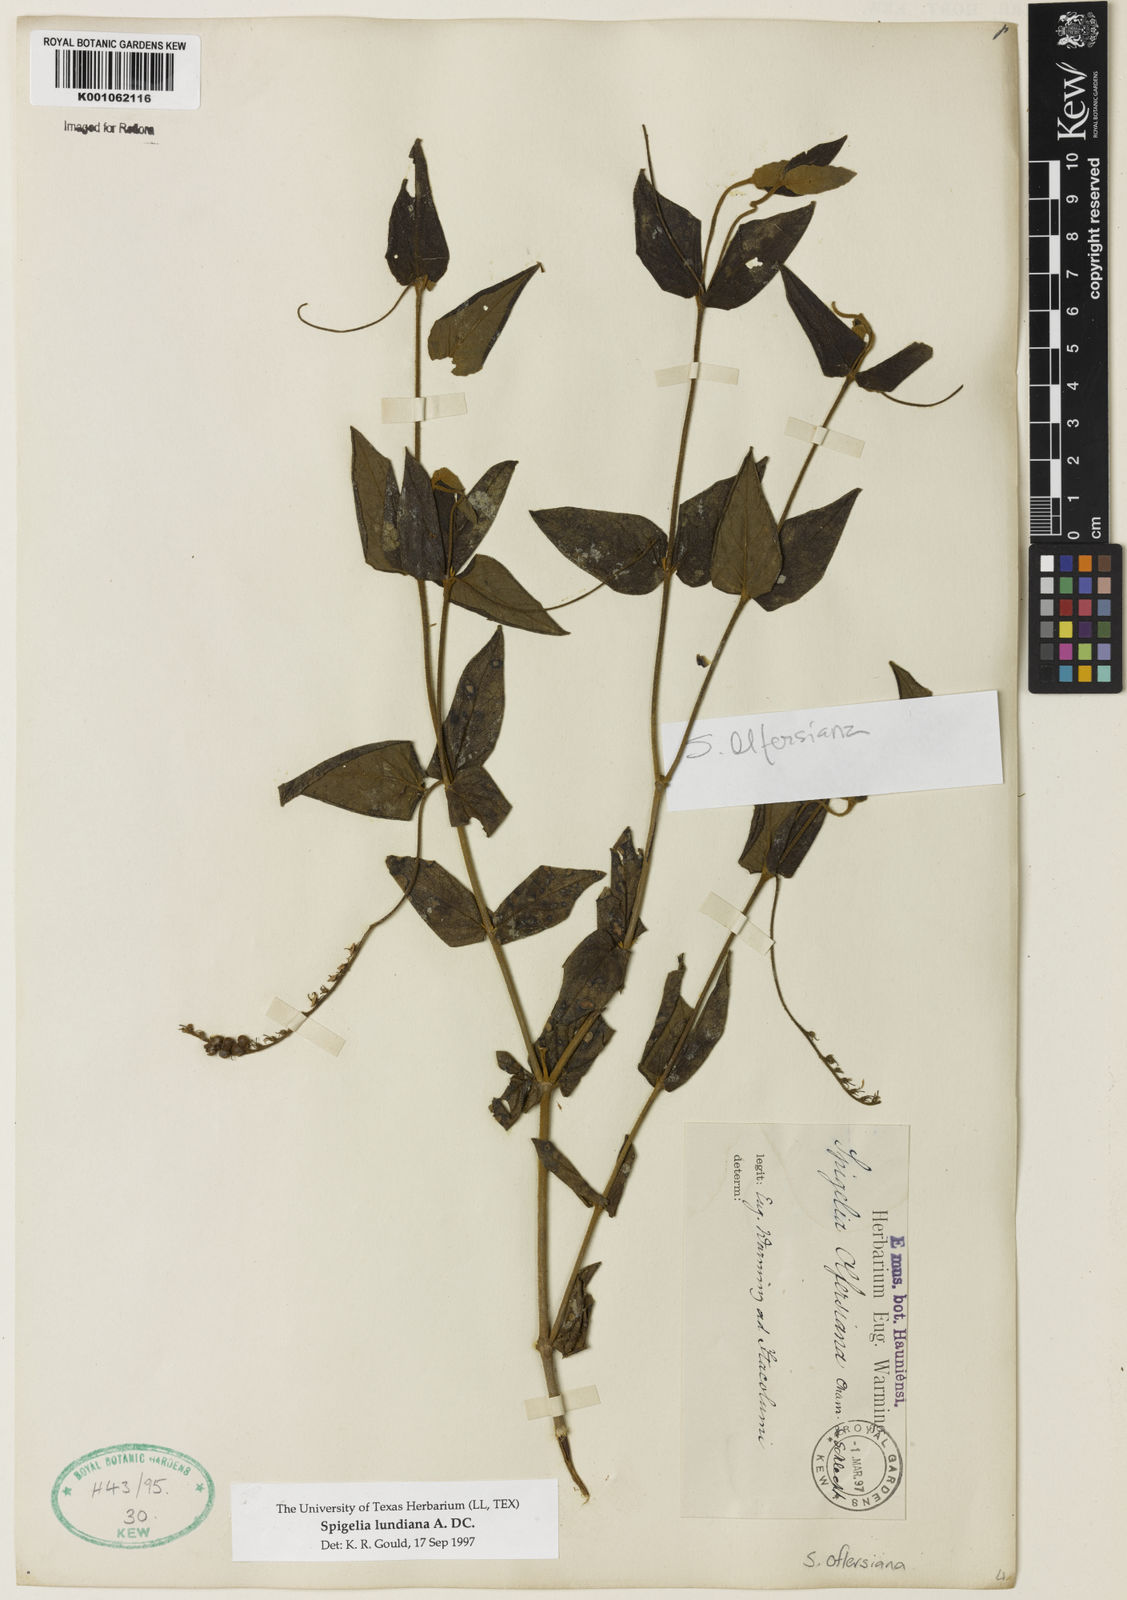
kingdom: Plantae
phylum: Tracheophyta
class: Magnoliopsida
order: Gentianales
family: Loganiaceae
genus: Spigelia
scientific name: Spigelia olfersiana
